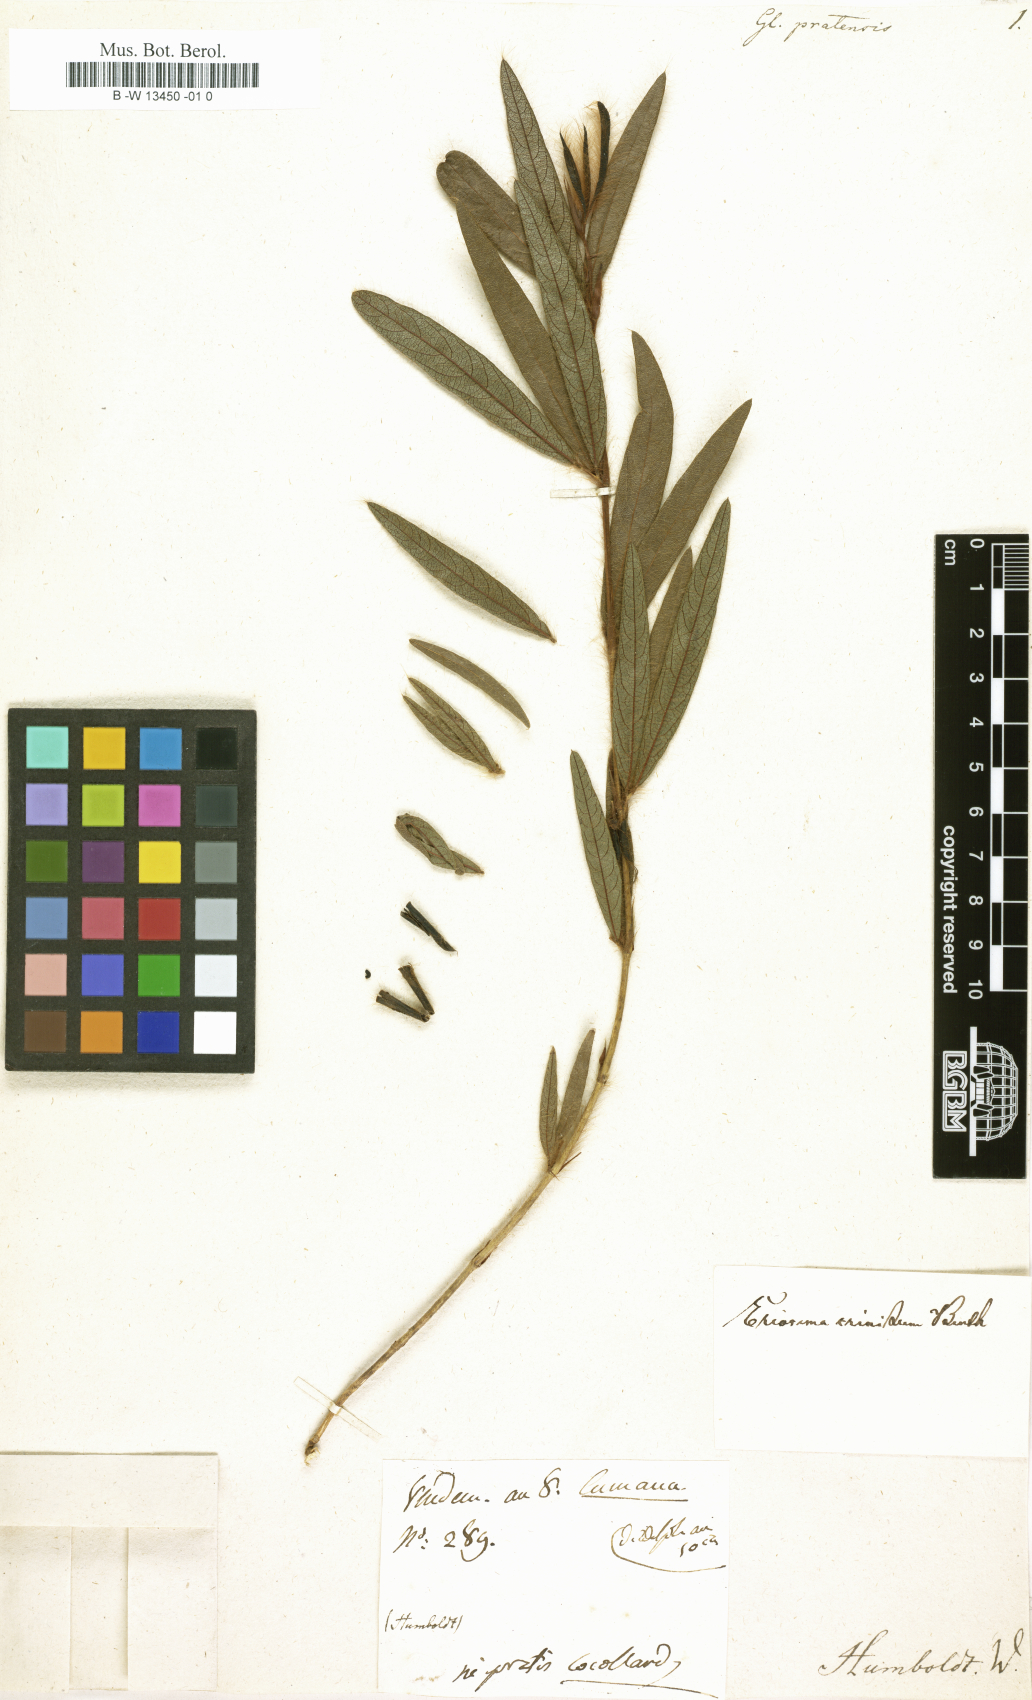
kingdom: Plantae
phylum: Tracheophyta
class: Magnoliopsida
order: Fabales
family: Fabaceae
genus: Glycine
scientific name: Glycine
